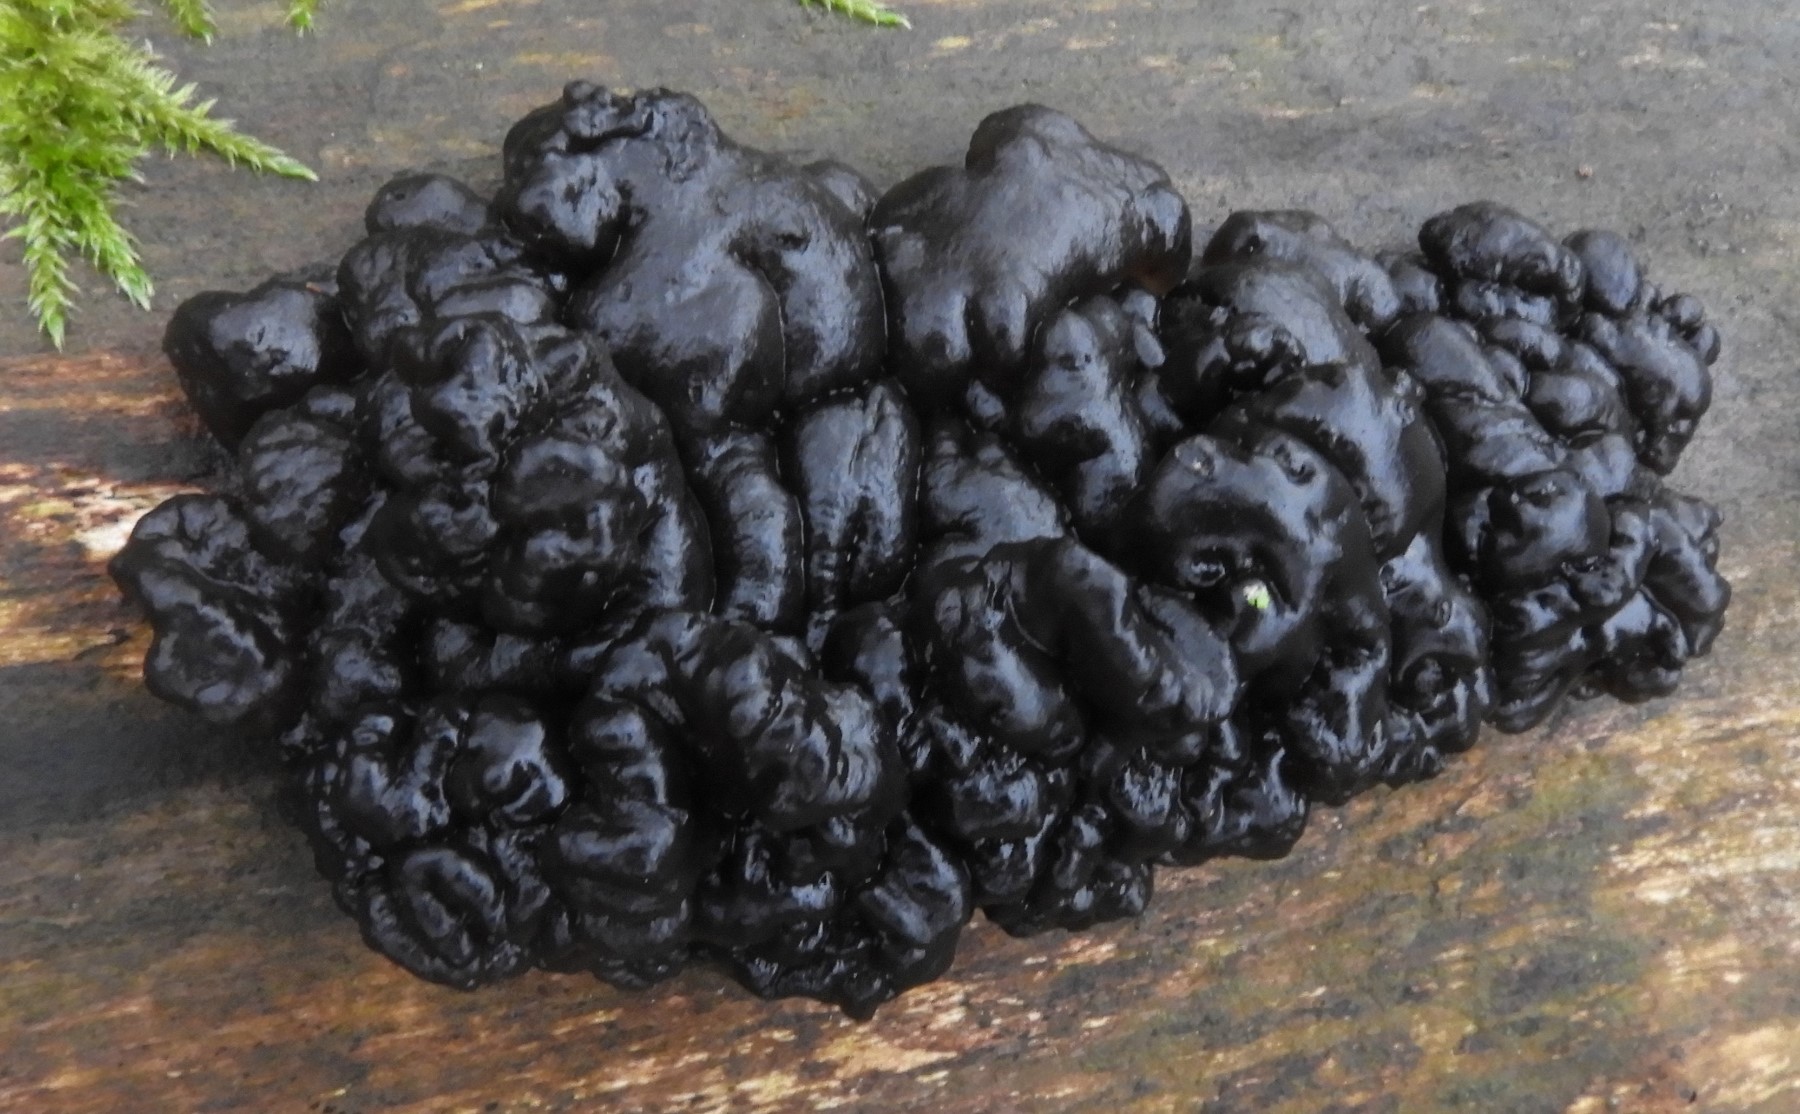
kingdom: Fungi
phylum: Basidiomycota
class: Agaricomycetes
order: Auriculariales
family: Auriculariaceae
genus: Exidia
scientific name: Exidia nigricans
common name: almindelig bævretop
